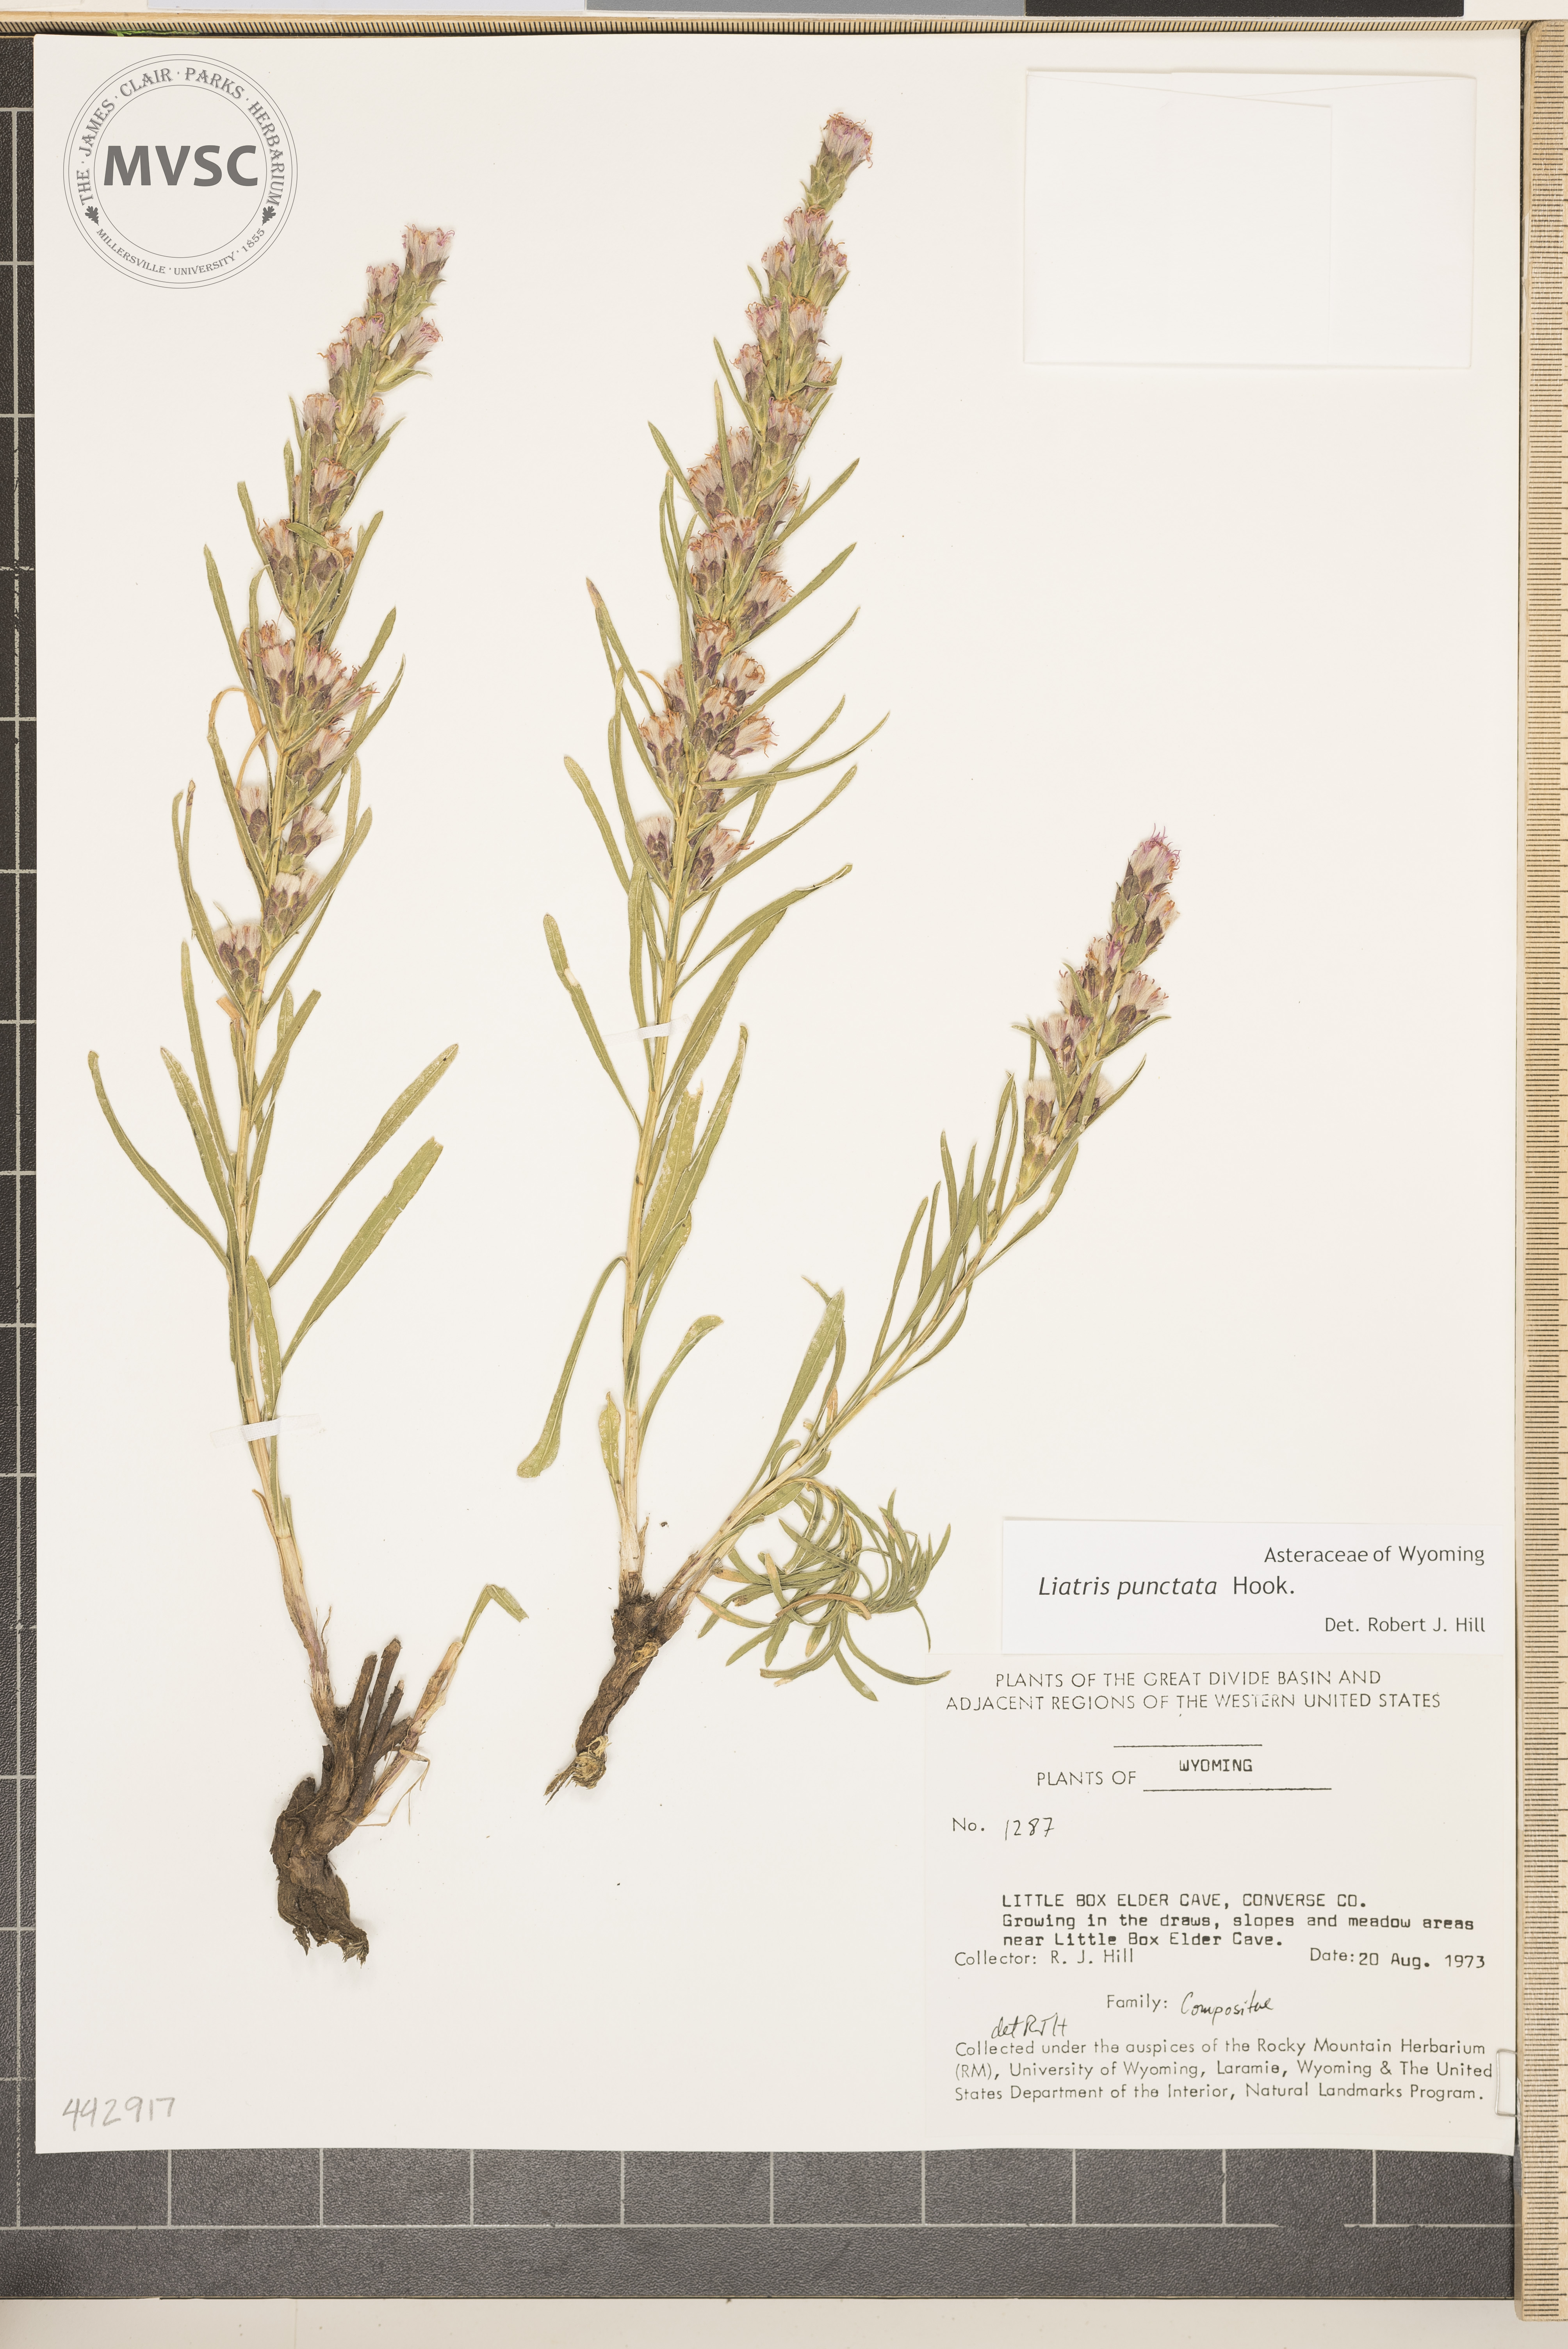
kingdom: Plantae
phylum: Tracheophyta
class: Magnoliopsida
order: Asterales
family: Asteraceae
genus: Liatris
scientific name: Liatris punctata
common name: Dotted gayfeather
